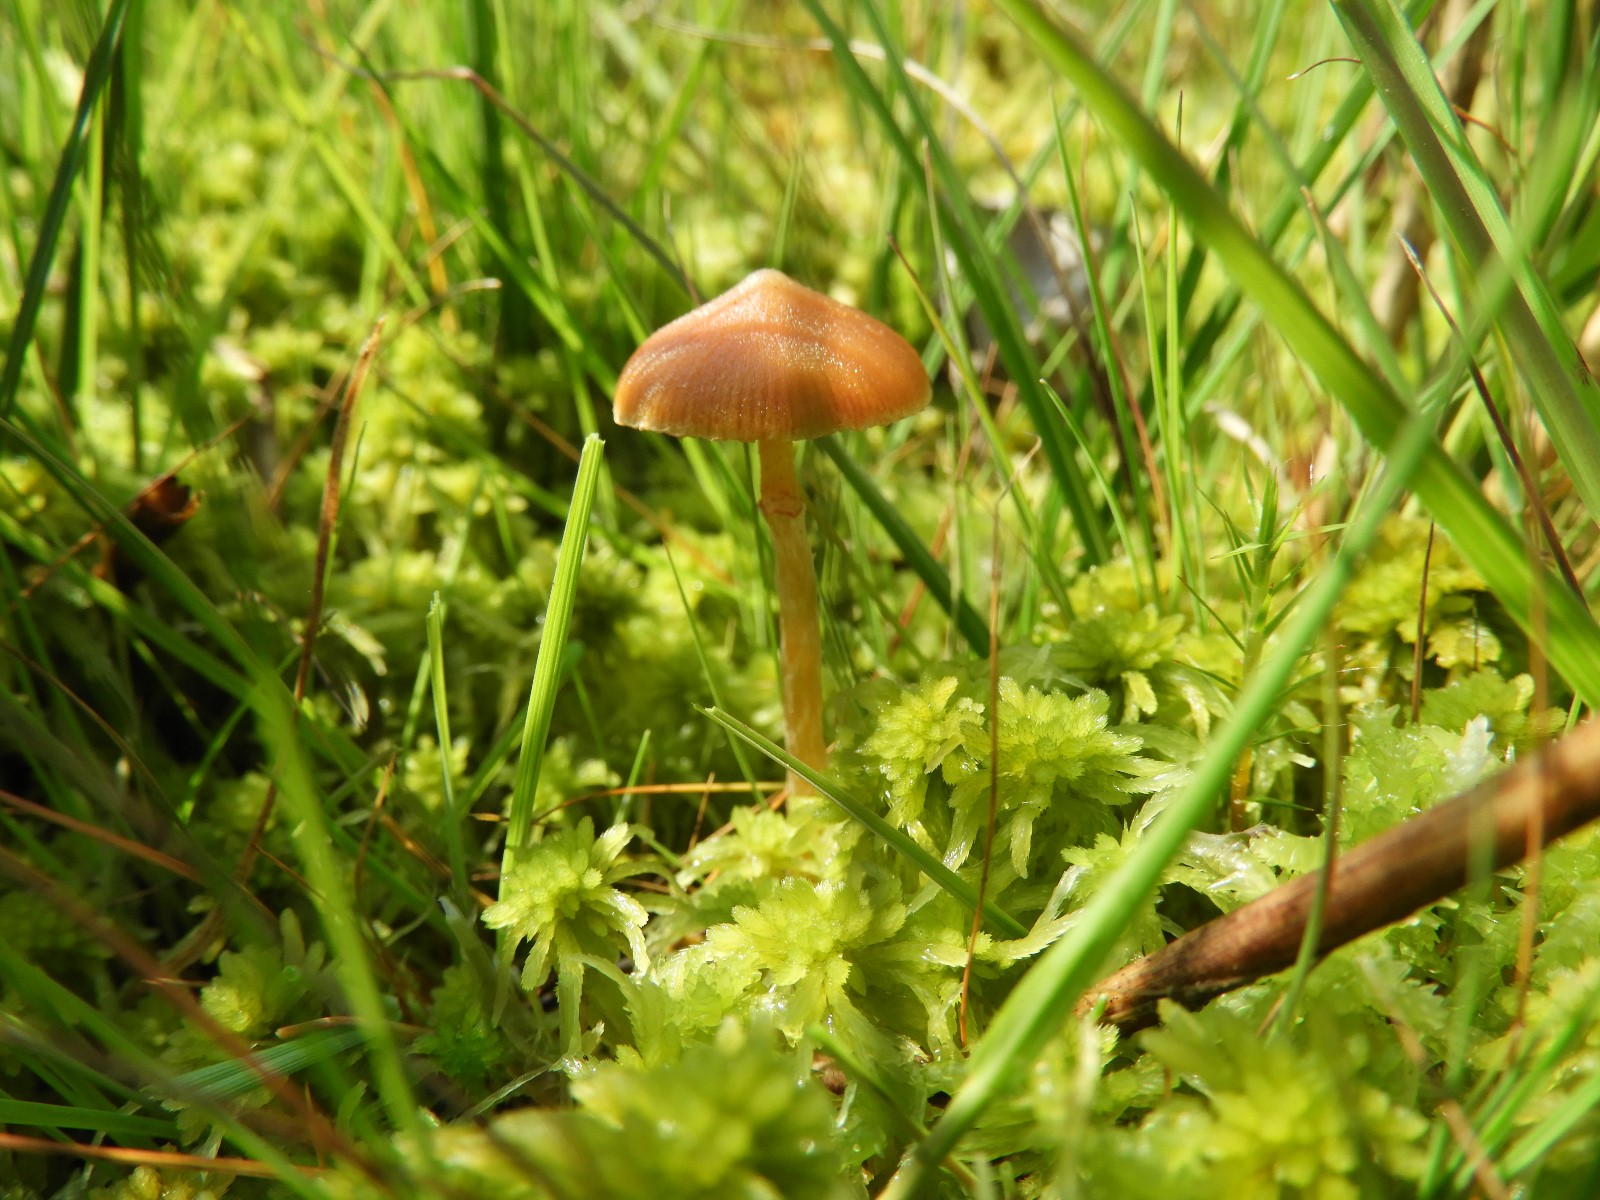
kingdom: Fungi
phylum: Basidiomycota
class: Agaricomycetes
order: Agaricales
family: Hymenogastraceae
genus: Galerina
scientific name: Galerina paludosa
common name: mose-hjelmhat
